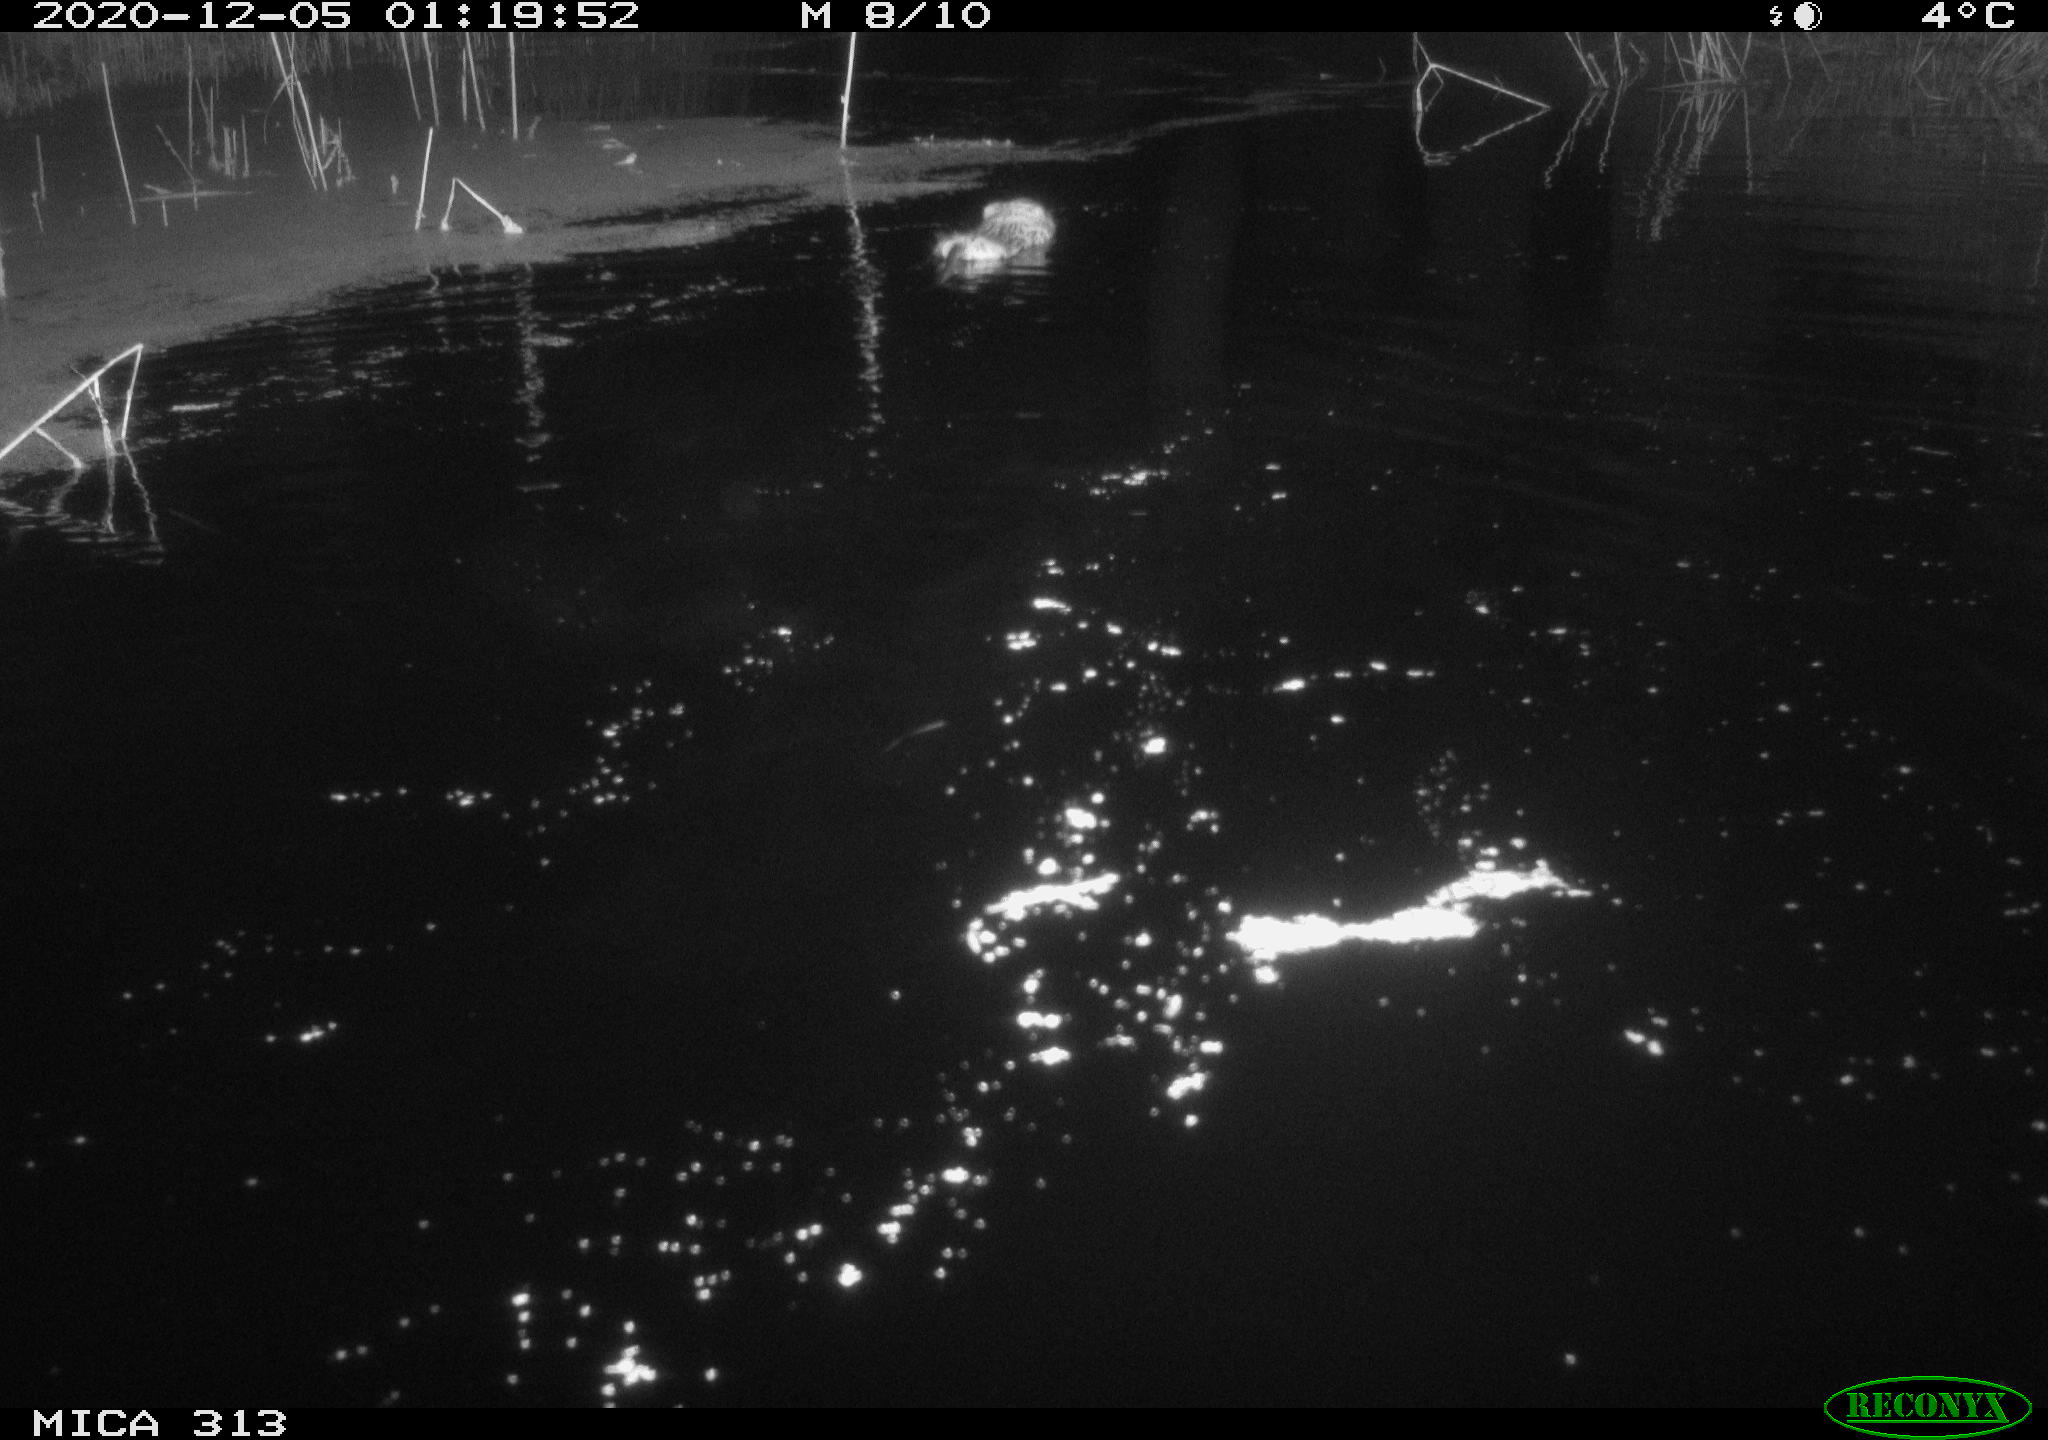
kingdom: Animalia
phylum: Chordata
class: Mammalia
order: Rodentia
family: Cricetidae
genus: Ondatra
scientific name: Ondatra zibethicus
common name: Muskrat
